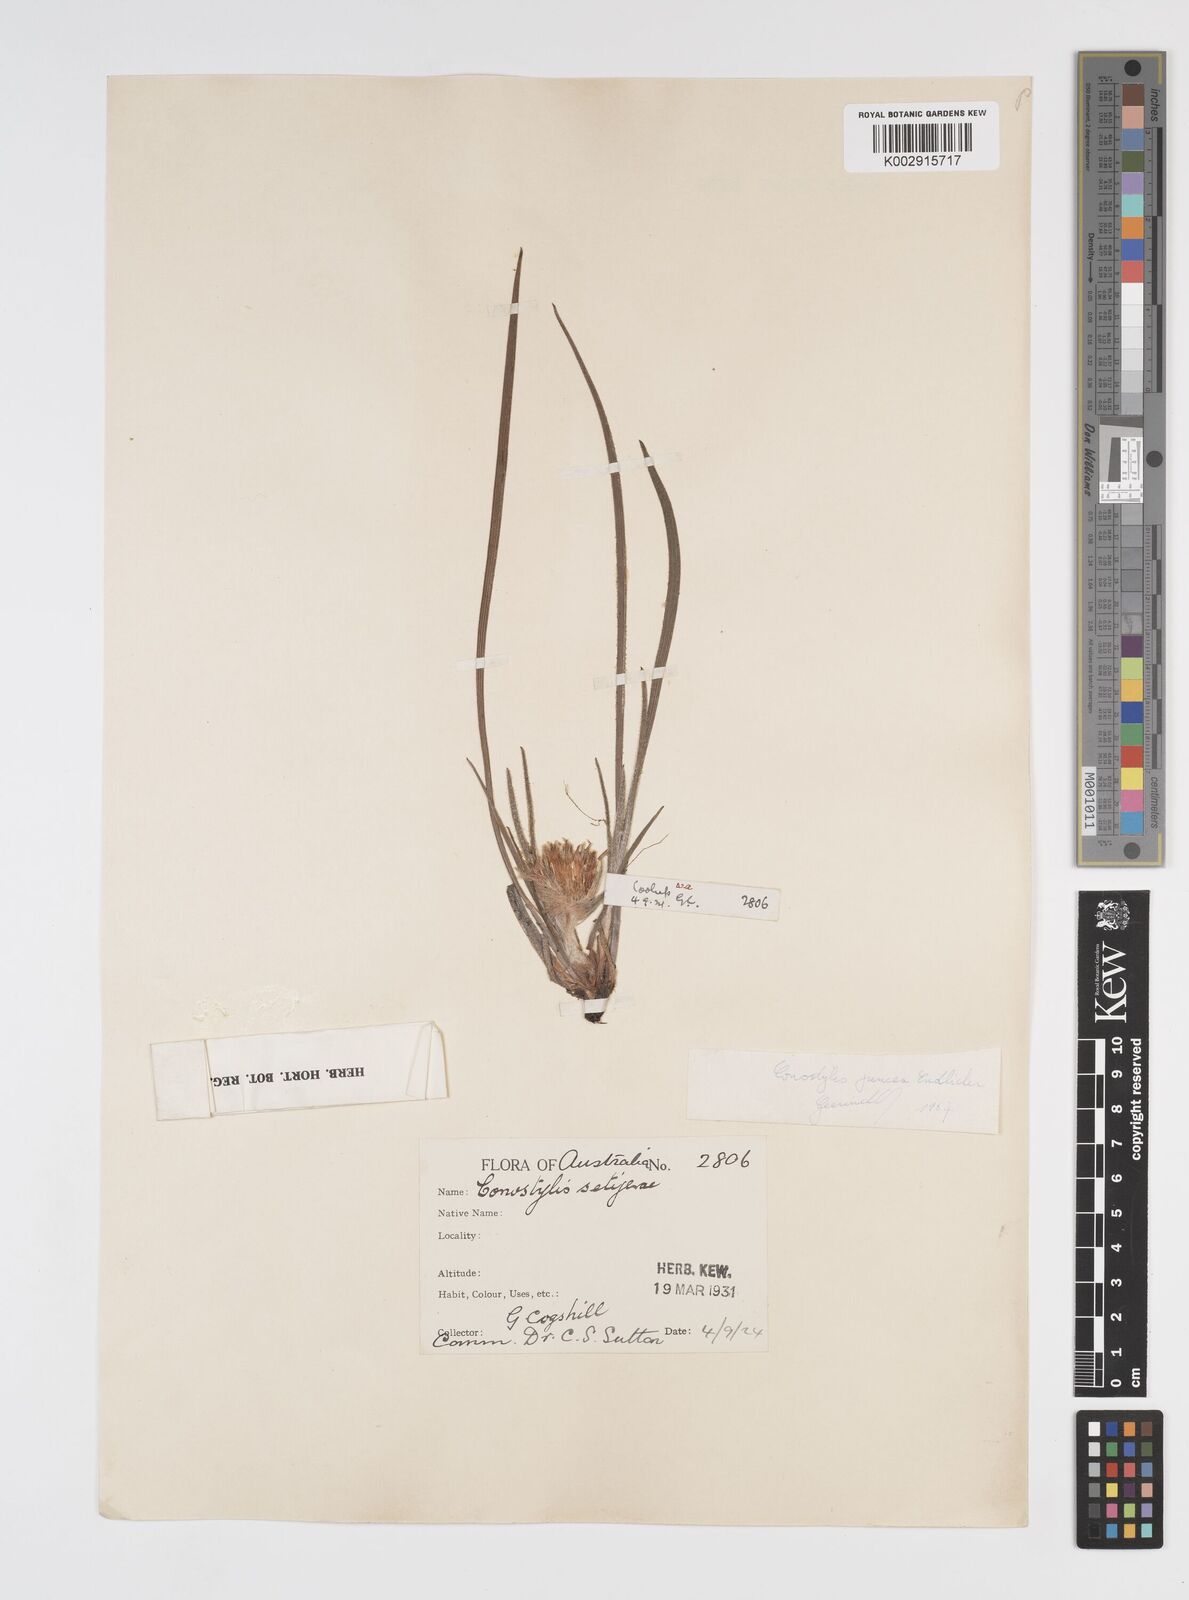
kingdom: Plantae
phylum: Tracheophyta
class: Liliopsida
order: Commelinales
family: Haemodoraceae
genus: Conostylis
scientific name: Conostylis juncea
